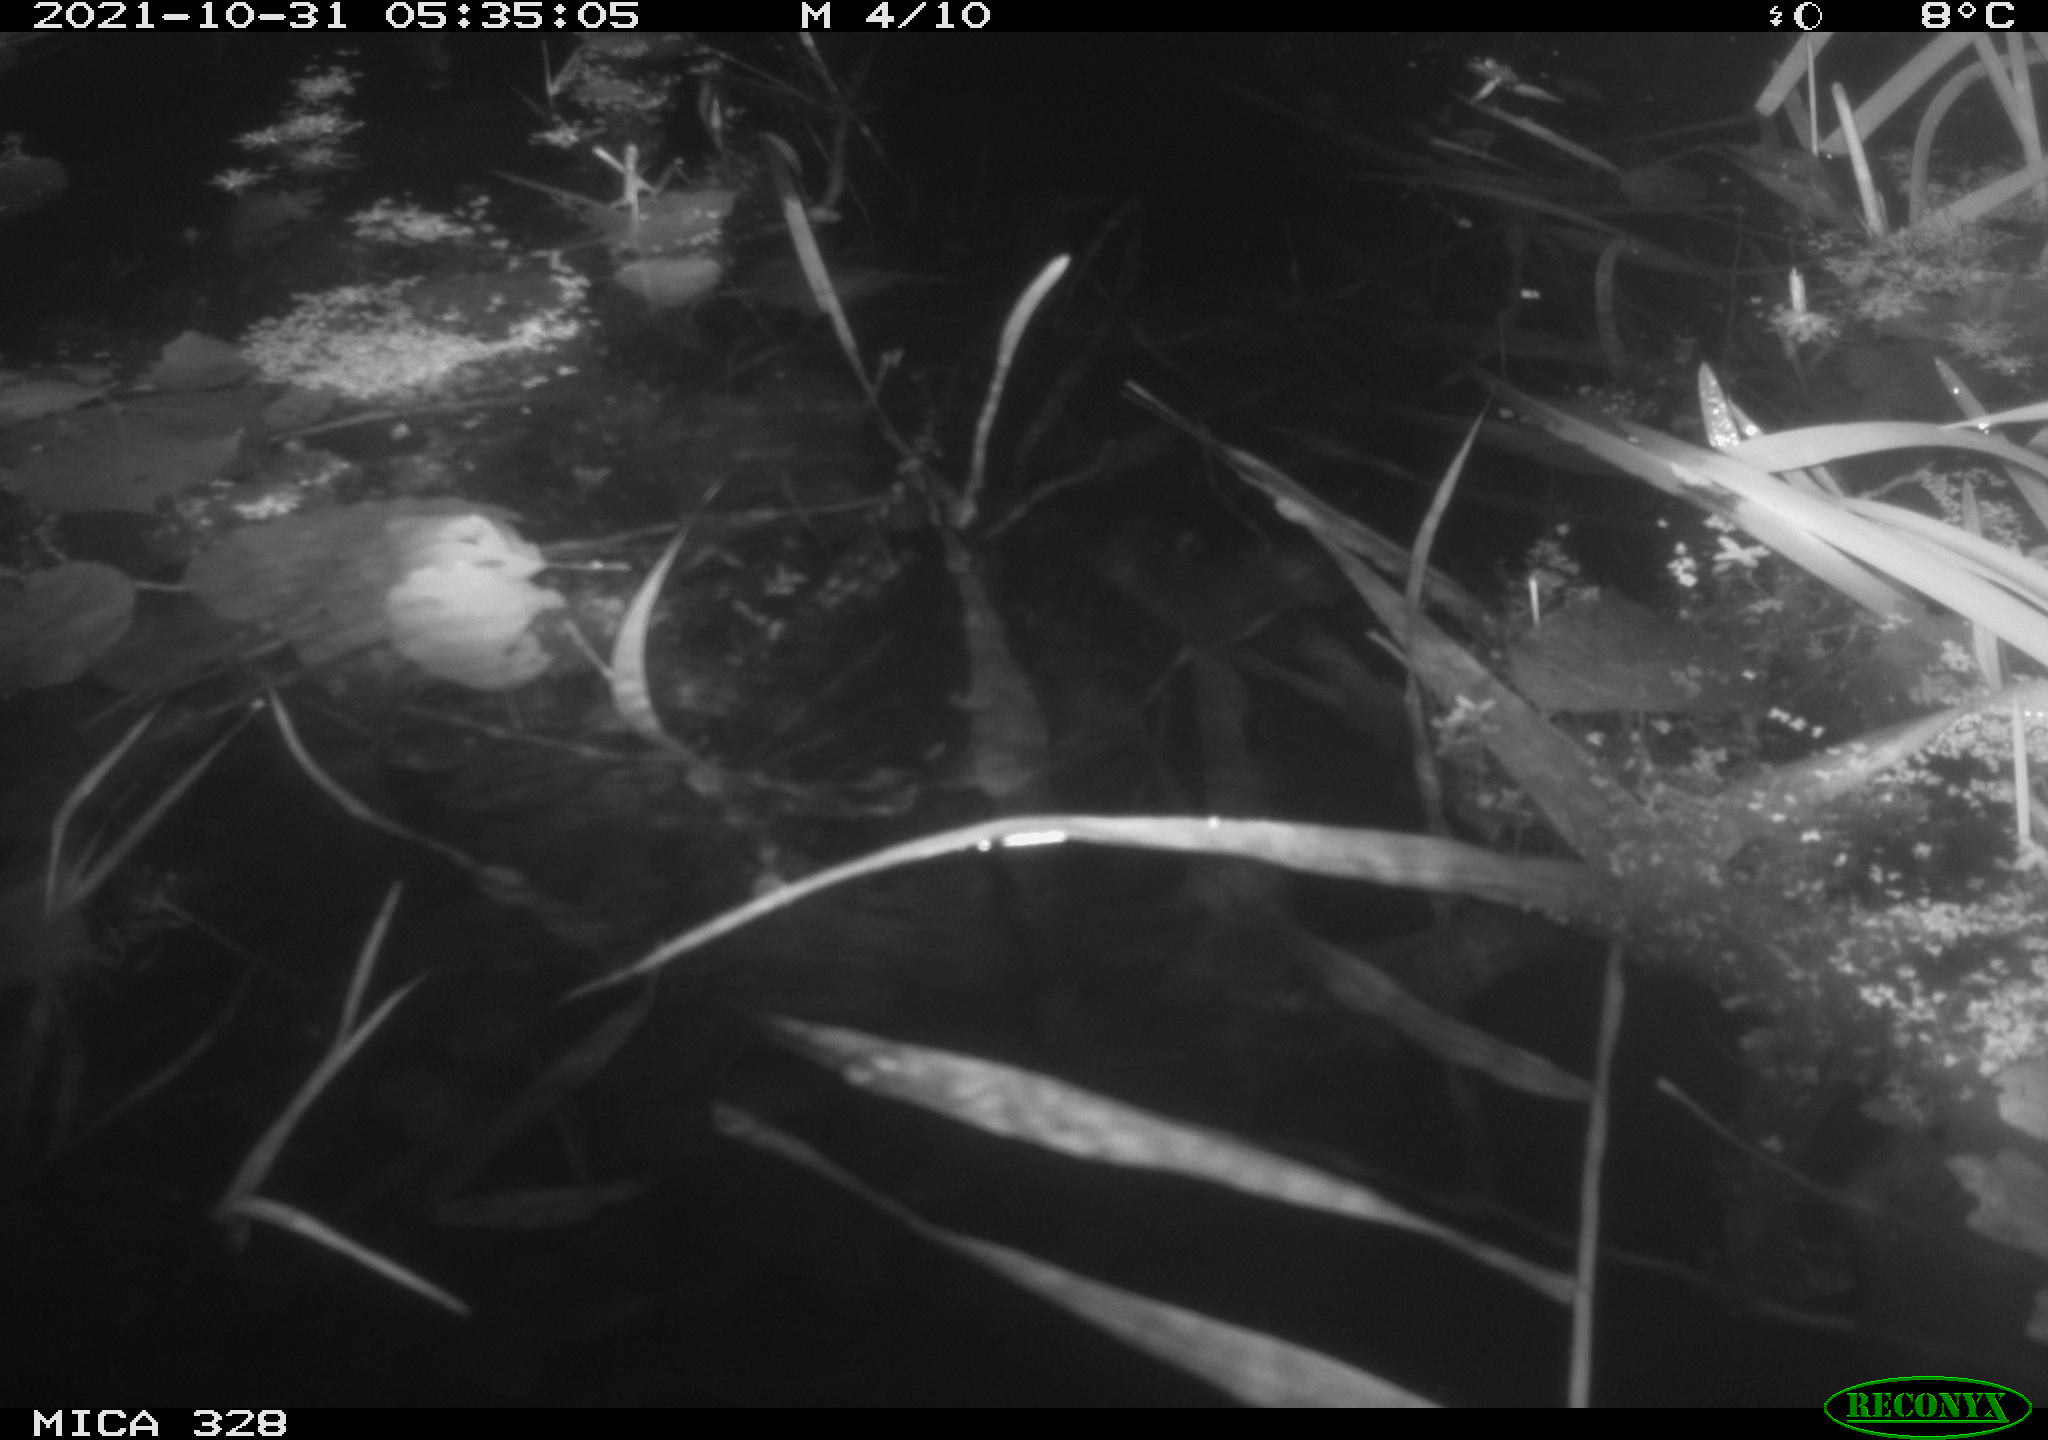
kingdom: Animalia
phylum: Chordata
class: Mammalia
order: Rodentia
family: Cricetidae
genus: Ondatra
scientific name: Ondatra zibethicus
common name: Muskrat
